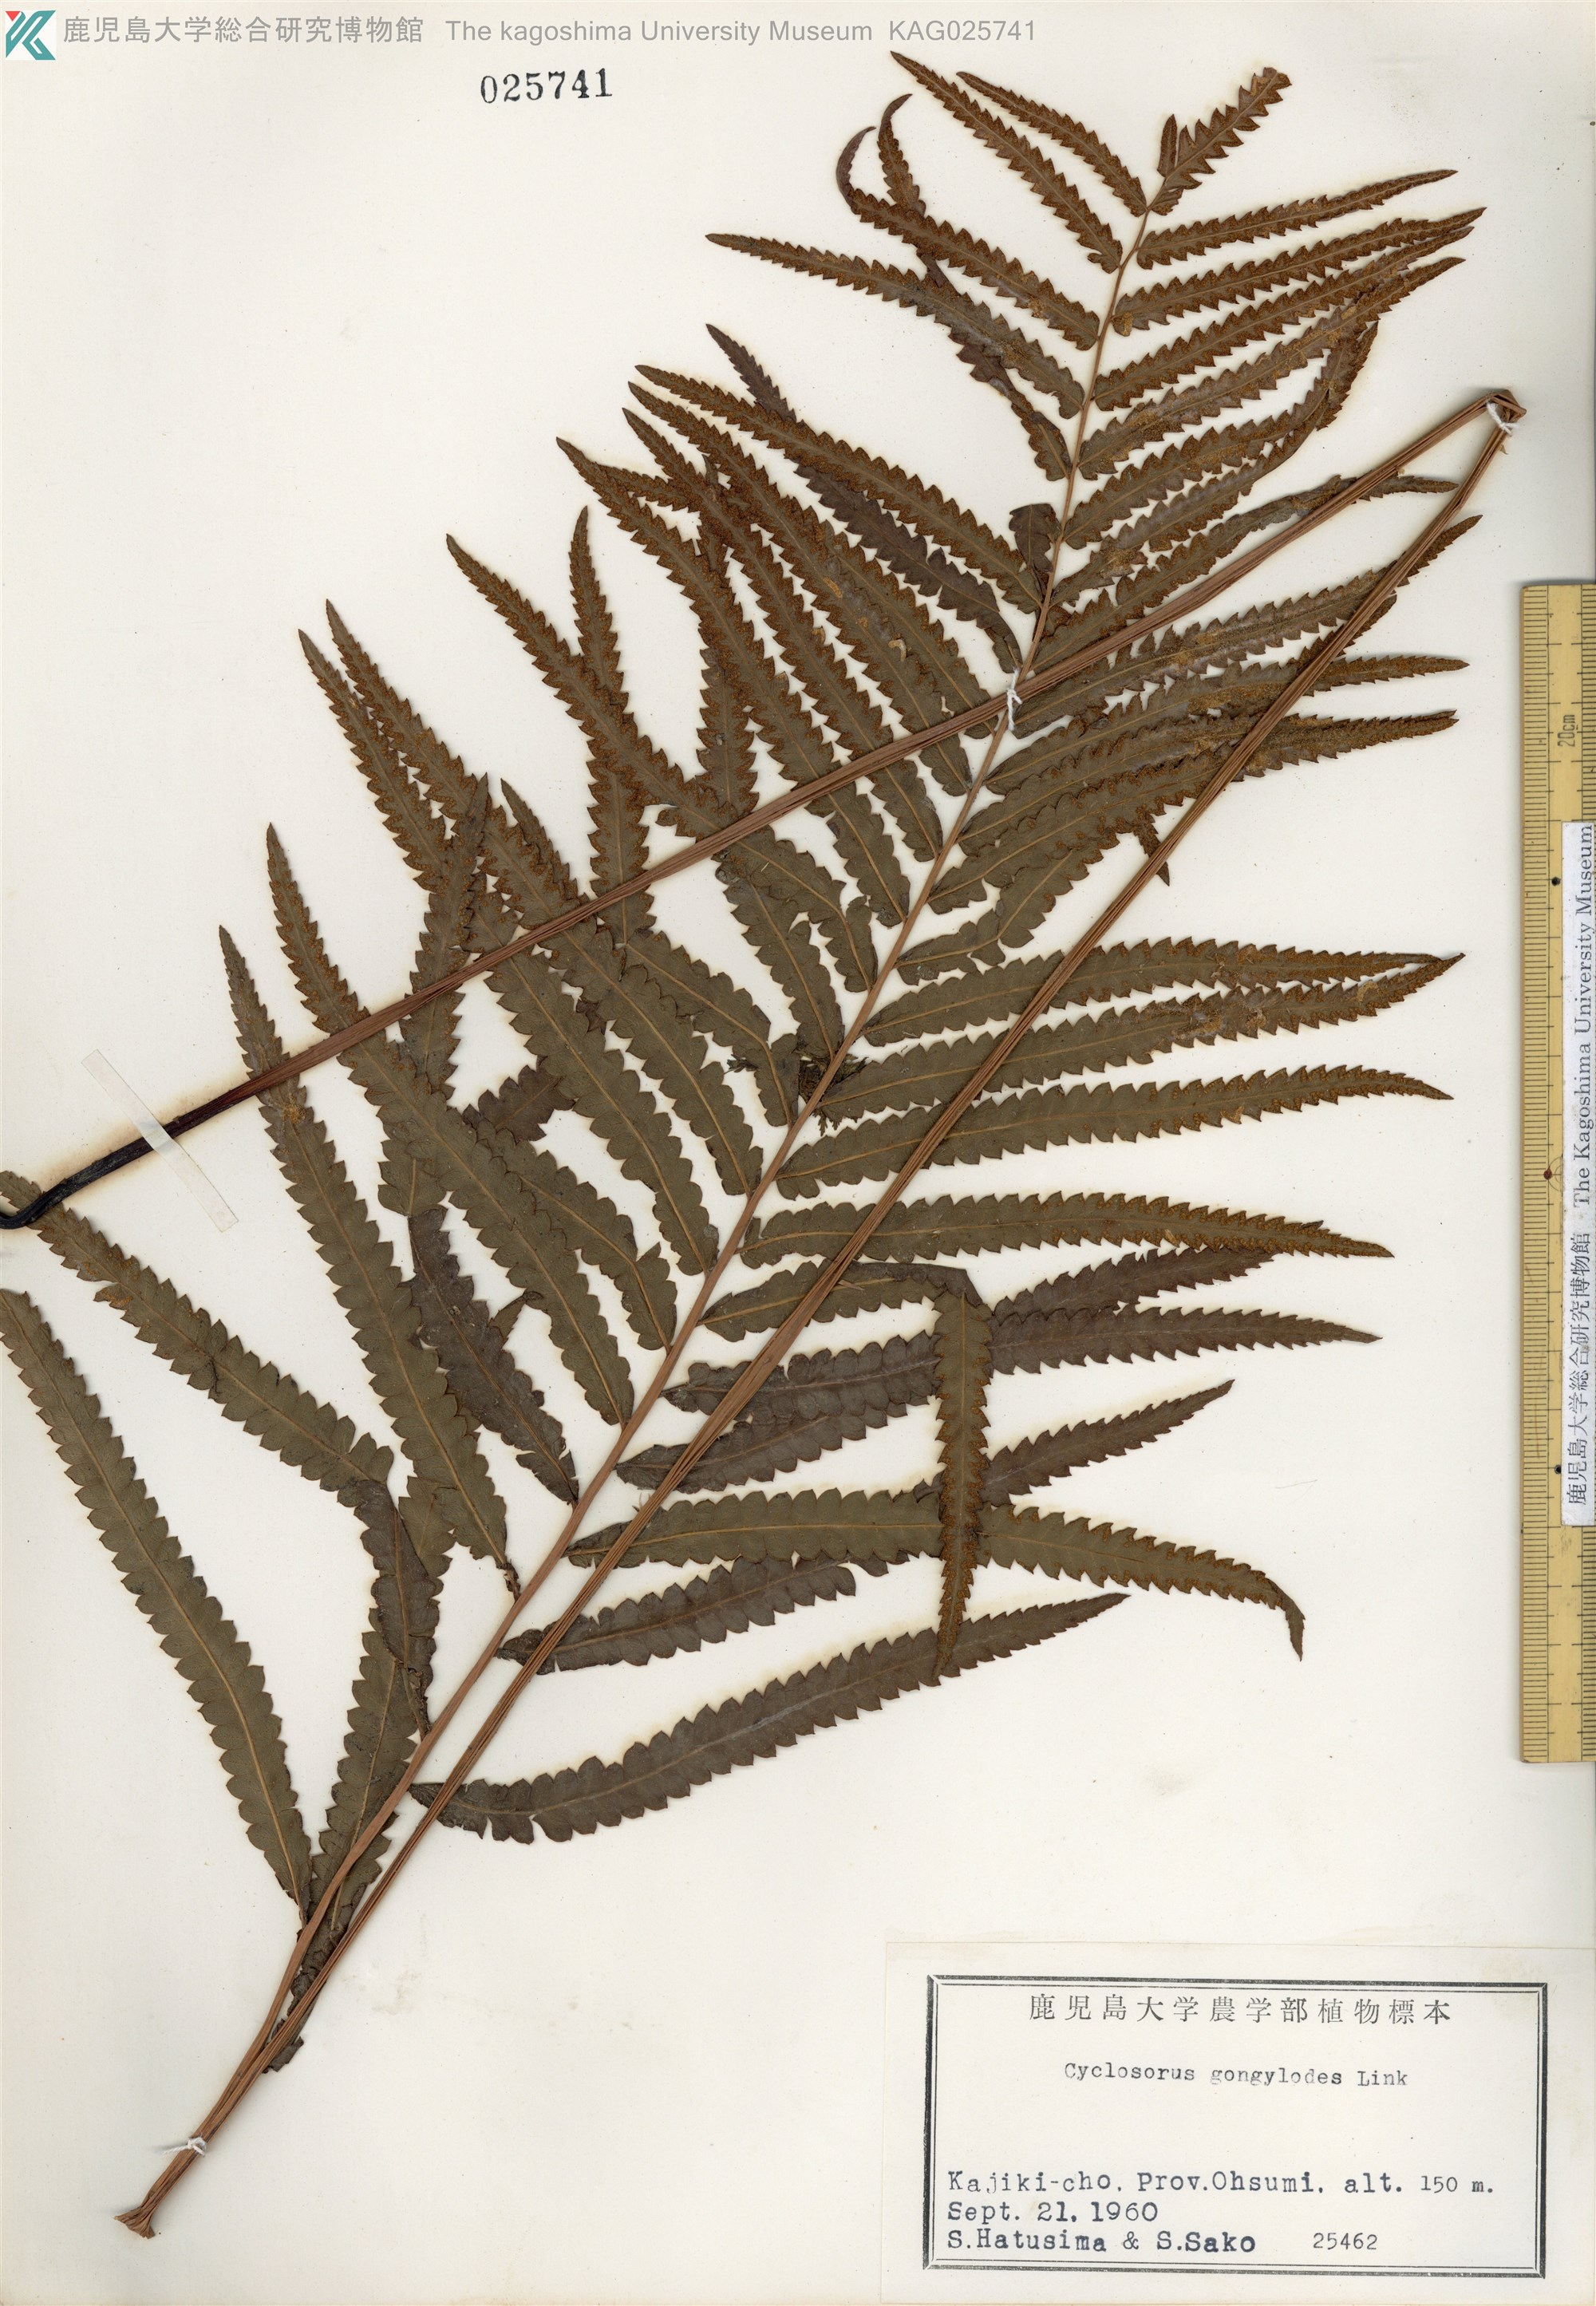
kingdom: Plantae
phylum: Tracheophyta
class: Polypodiopsida
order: Polypodiales
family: Thelypteridaceae
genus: Cyclosorus
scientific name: Cyclosorus interruptus
